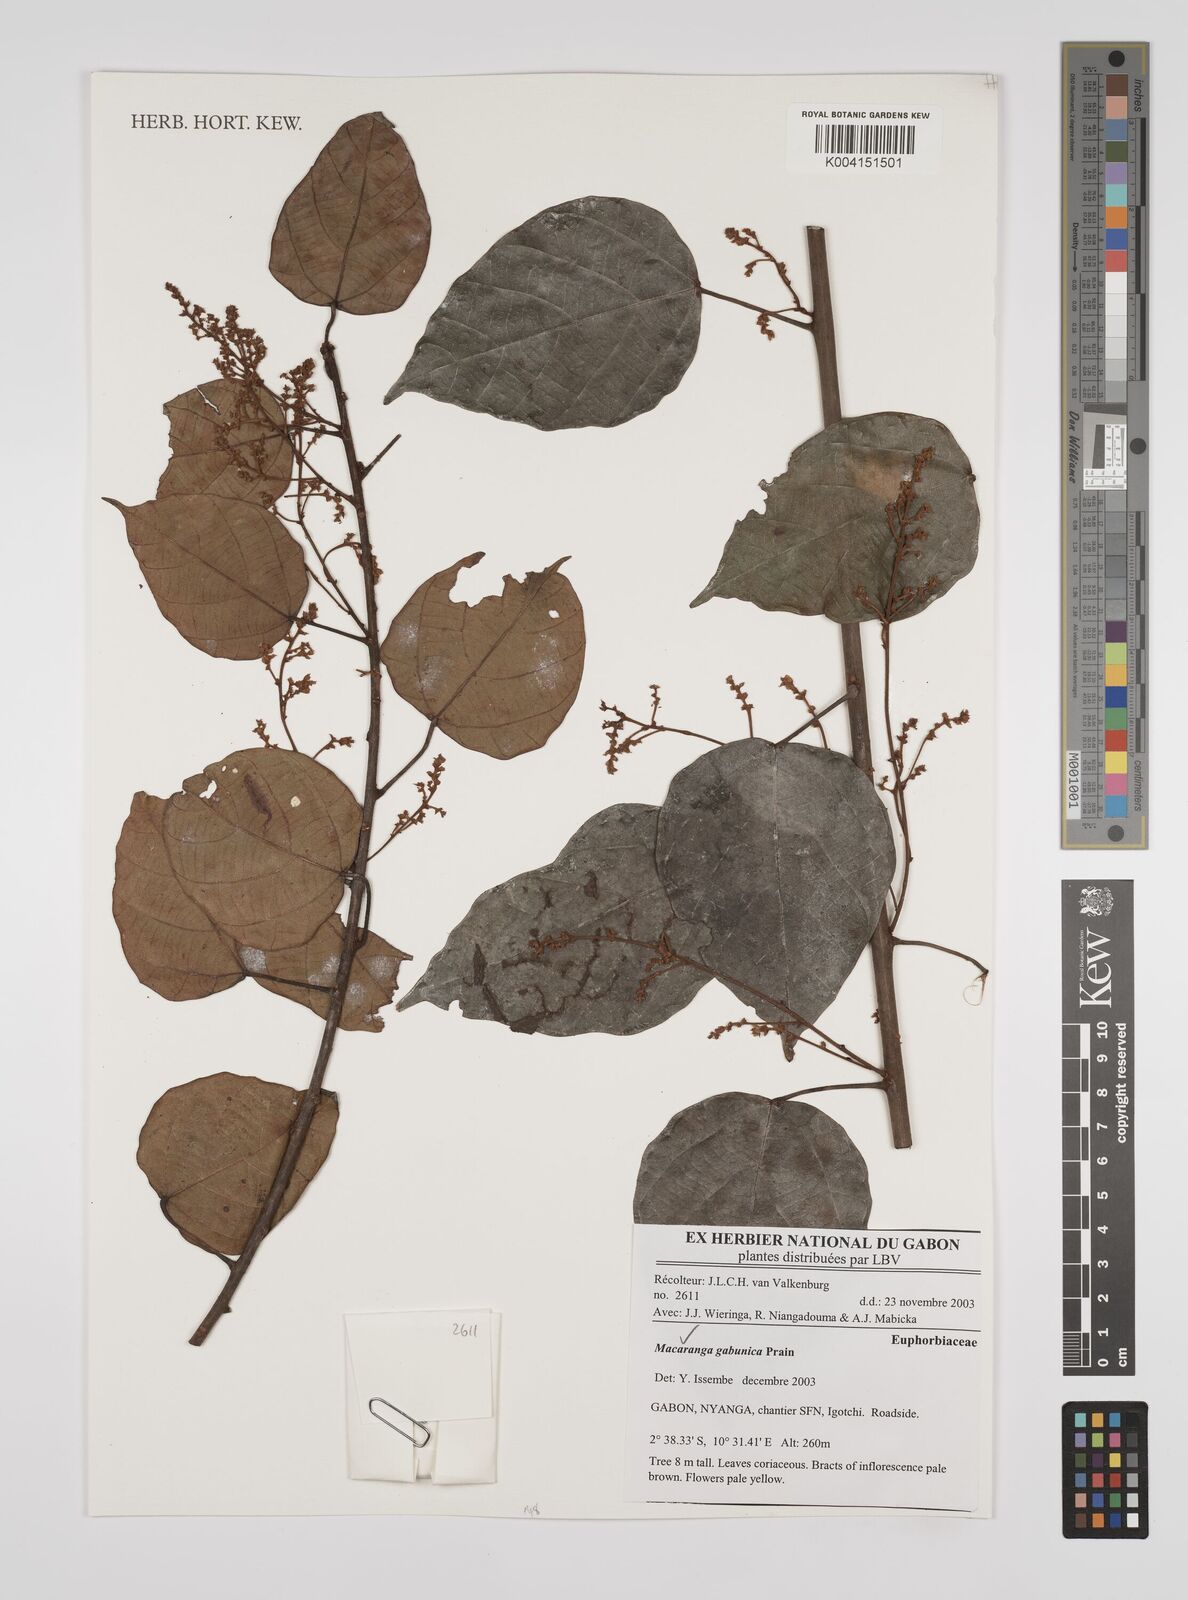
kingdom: Plantae
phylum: Tracheophyta
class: Magnoliopsida
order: Malpighiales
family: Euphorbiaceae
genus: Macaranga
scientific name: Macaranga gabunica
